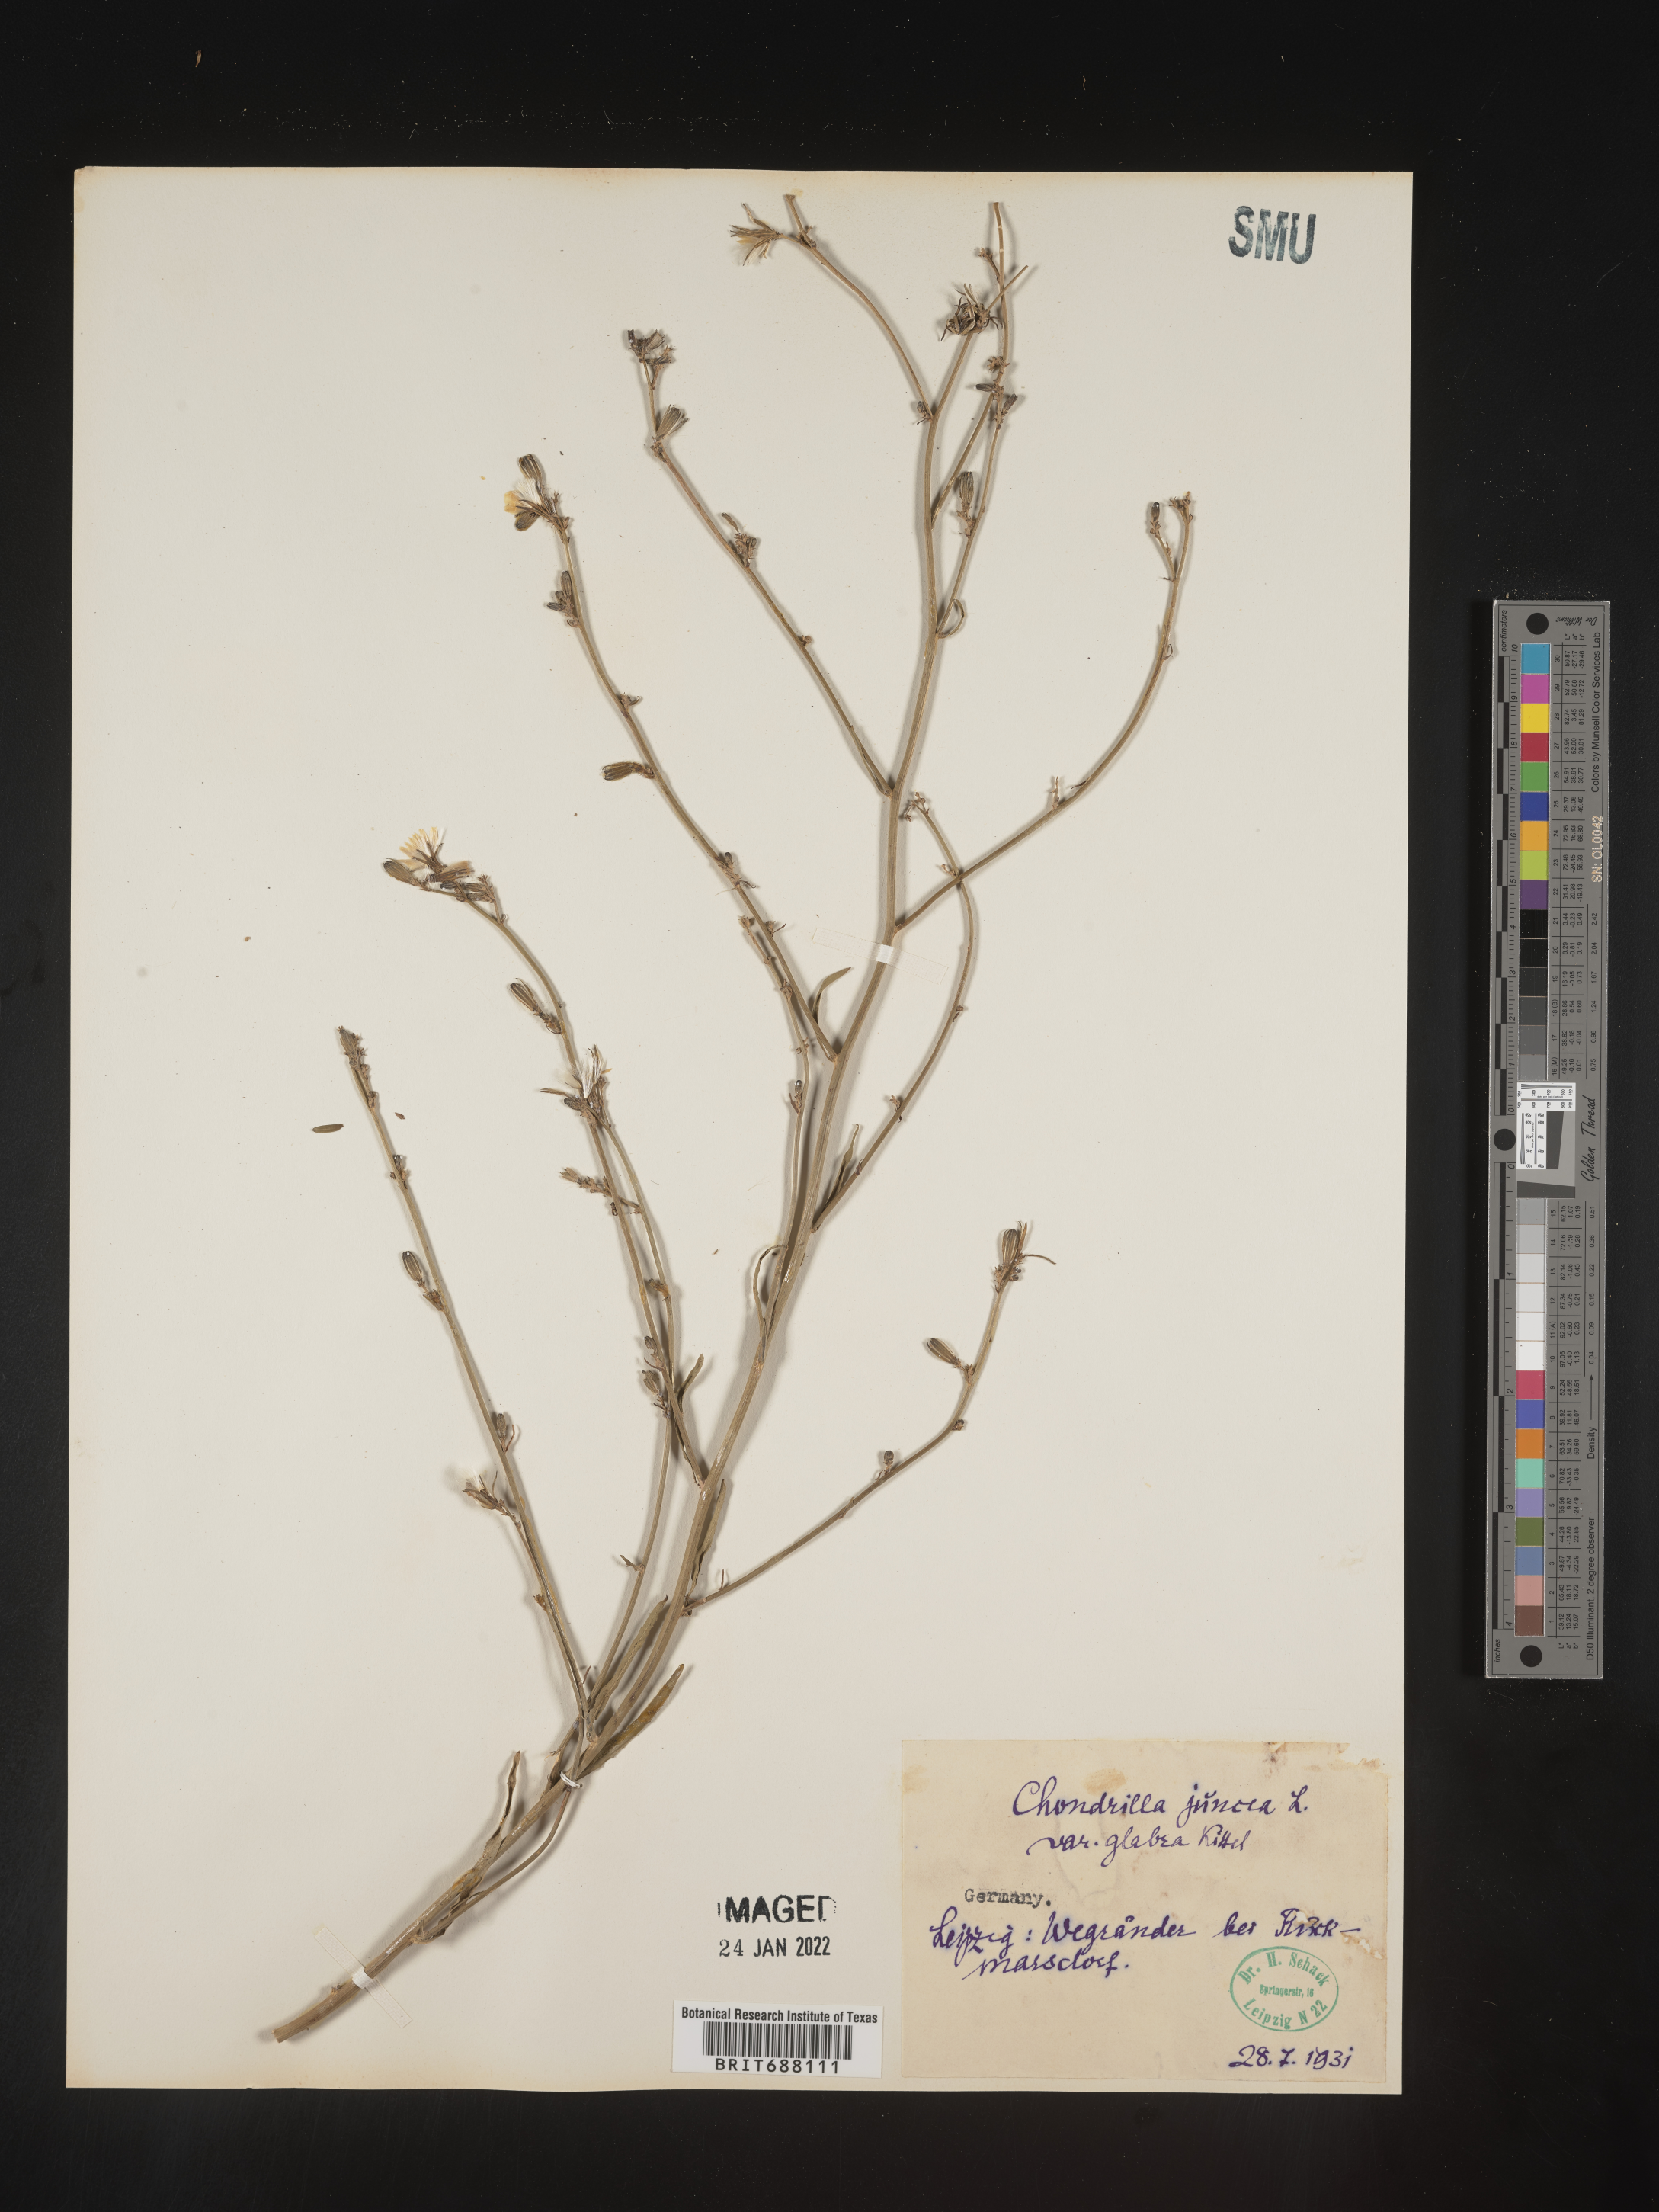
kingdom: Plantae
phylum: Tracheophyta
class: Magnoliopsida
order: Asterales
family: Asteraceae
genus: Chondrilla
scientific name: Chondrilla
